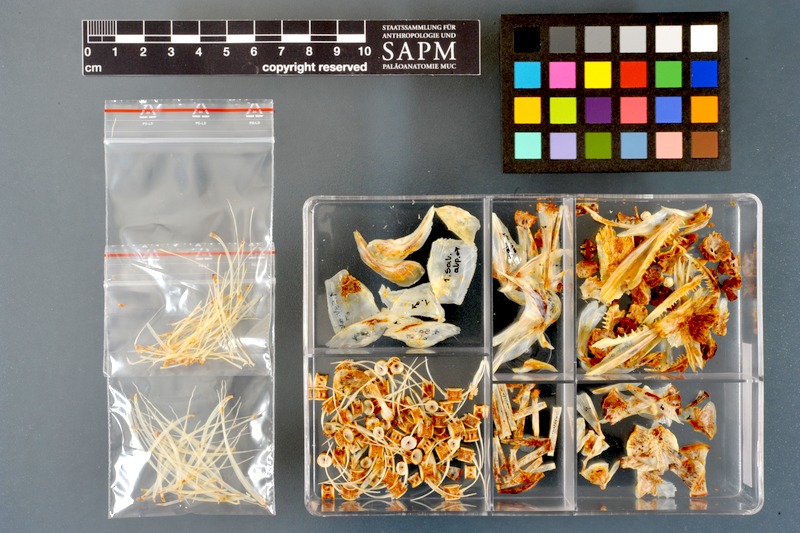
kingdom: Animalia
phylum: Chordata
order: Salmoniformes
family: Salmonidae
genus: Salvelinus
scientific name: Salvelinus alpinus
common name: Charr
